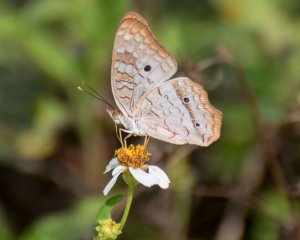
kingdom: Animalia
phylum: Arthropoda
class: Insecta
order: Lepidoptera
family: Nymphalidae
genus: Anartia
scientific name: Anartia jatrophae
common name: White Peacock
